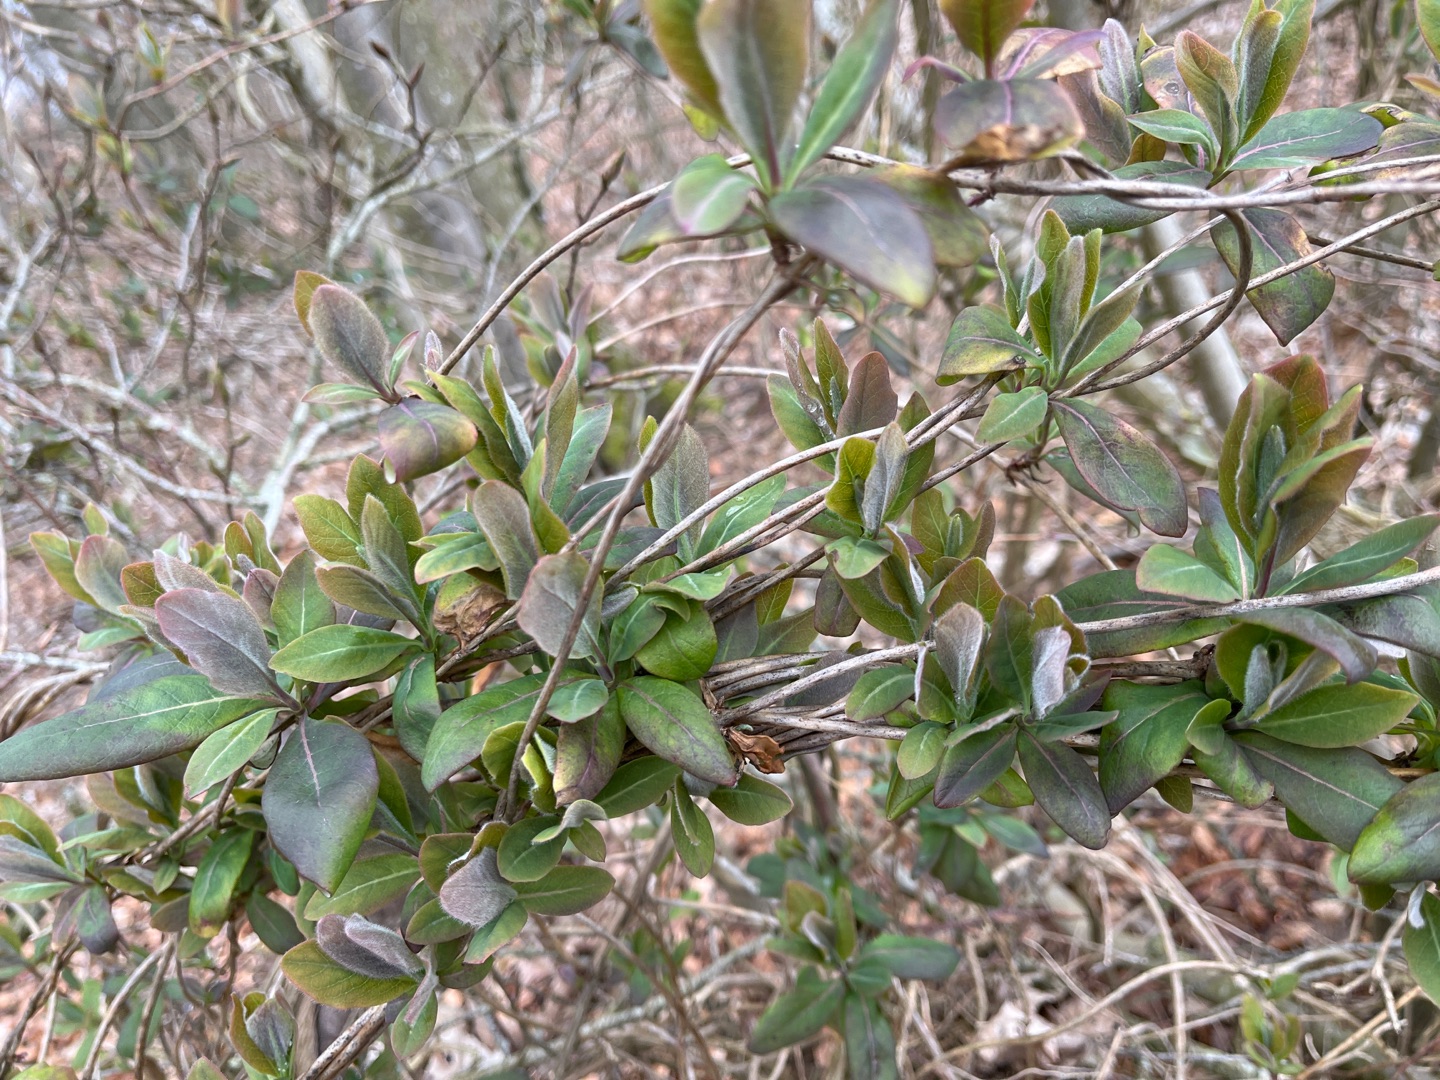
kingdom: Plantae
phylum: Tracheophyta
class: Magnoliopsida
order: Dipsacales
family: Caprifoliaceae
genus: Lonicera
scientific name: Lonicera periclymenum
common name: Almindelig gedeblad
